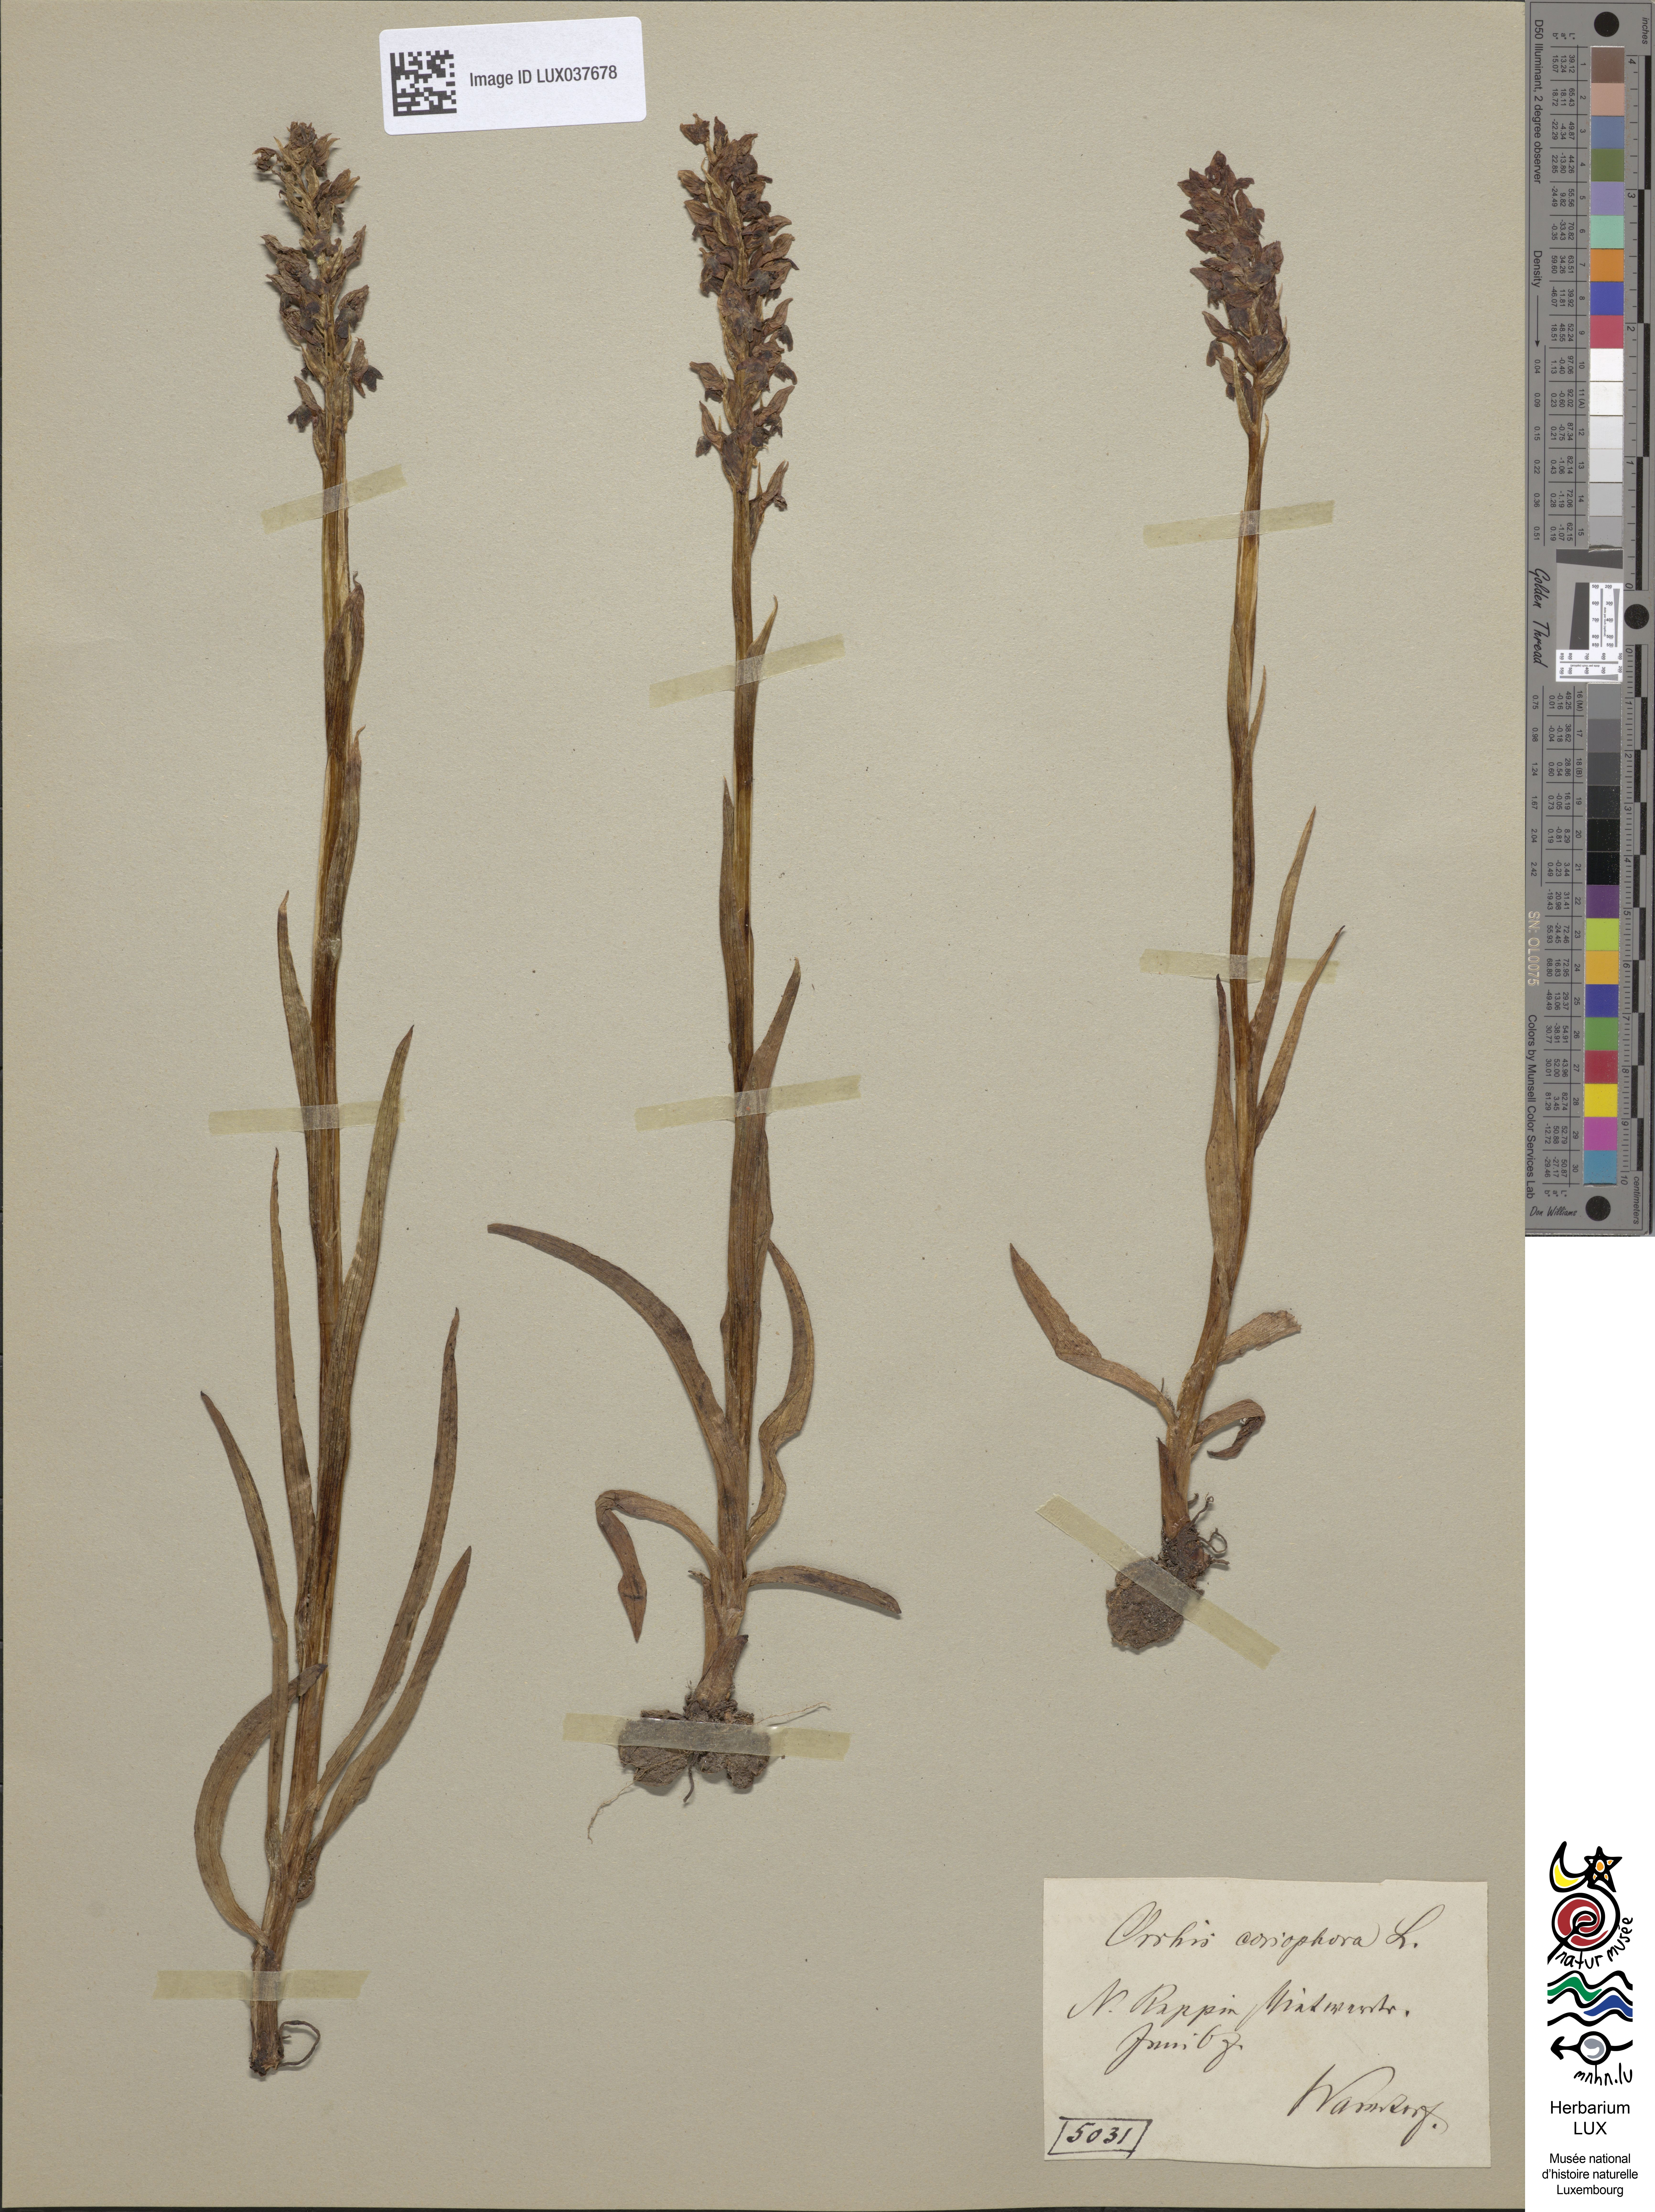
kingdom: Plantae
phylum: Tracheophyta
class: Liliopsida
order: Asparagales
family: Orchidaceae
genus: Anacamptis
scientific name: Anacamptis coriophora
